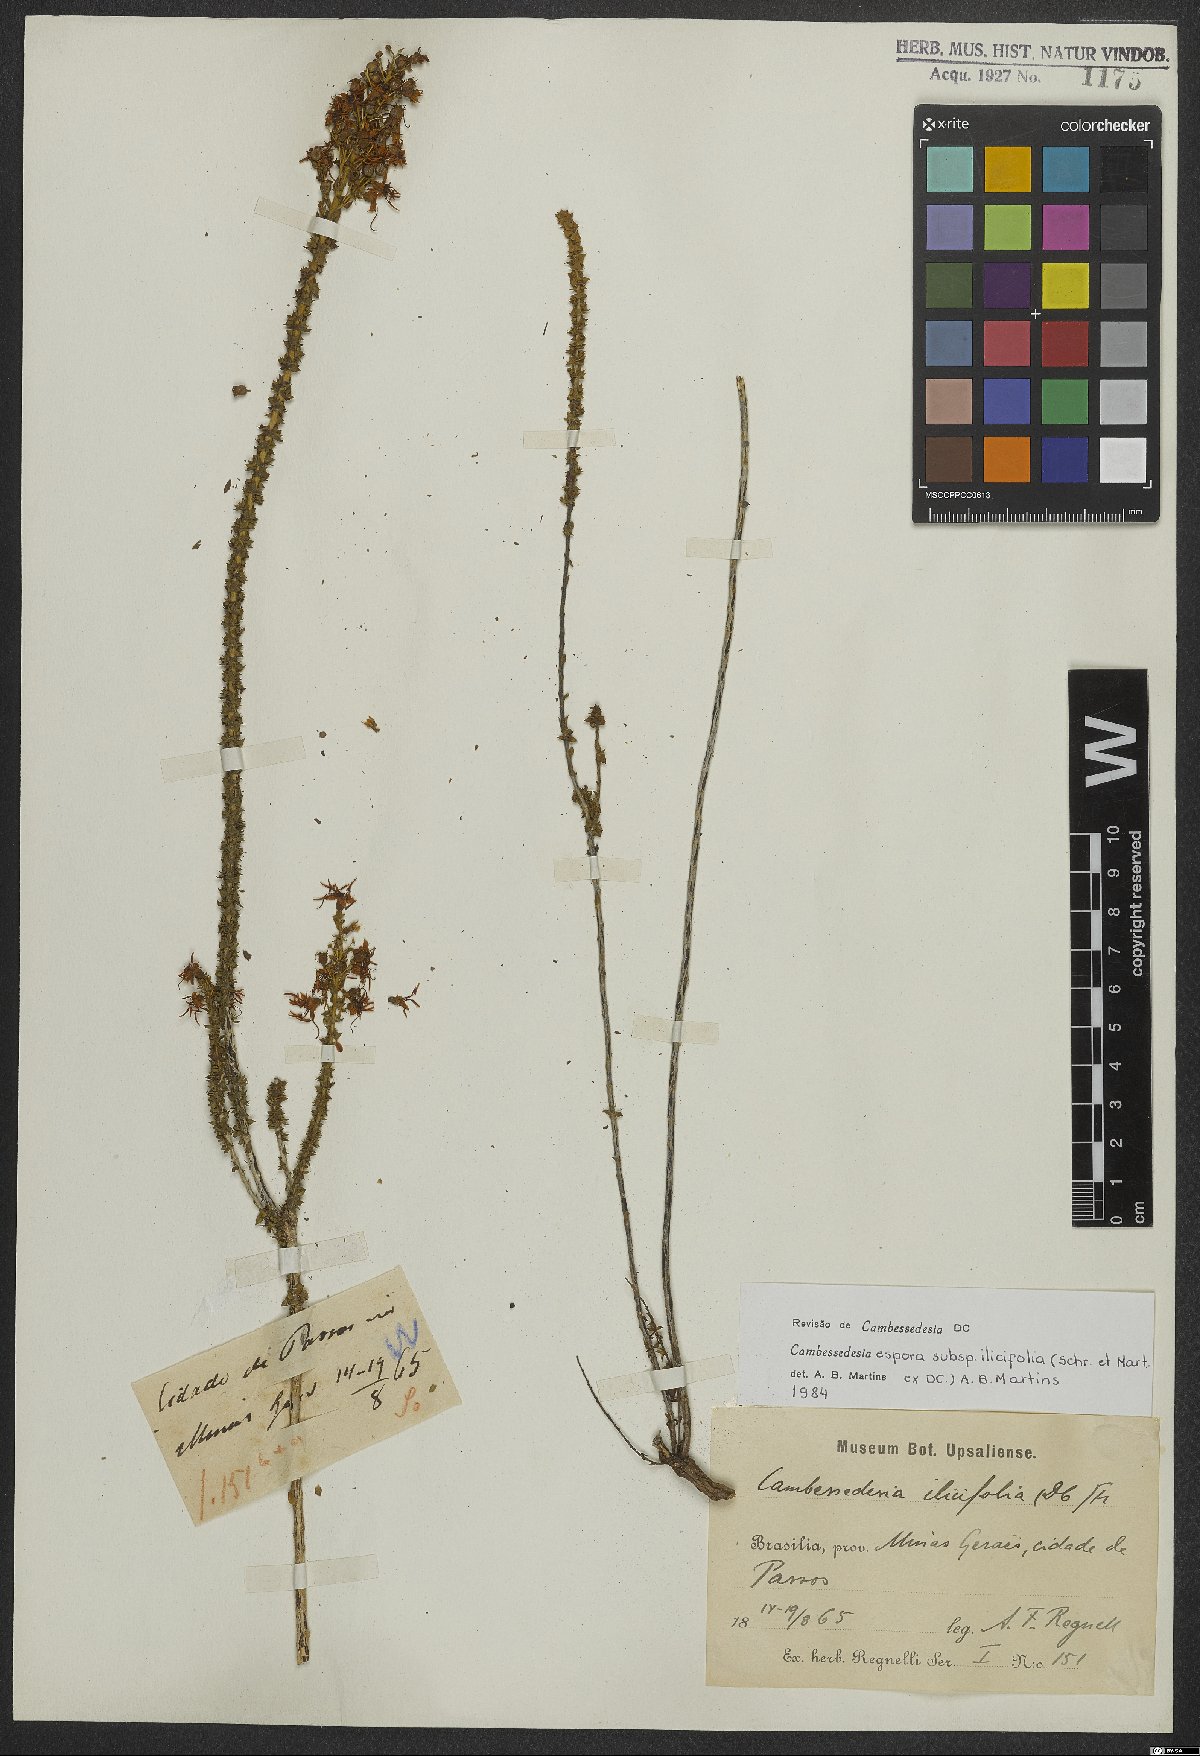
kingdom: Plantae
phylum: Tracheophyta
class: Magnoliopsida
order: Myrtales
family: Melastomataceae
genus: Cambessedesia
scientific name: Cambessedesia espora
